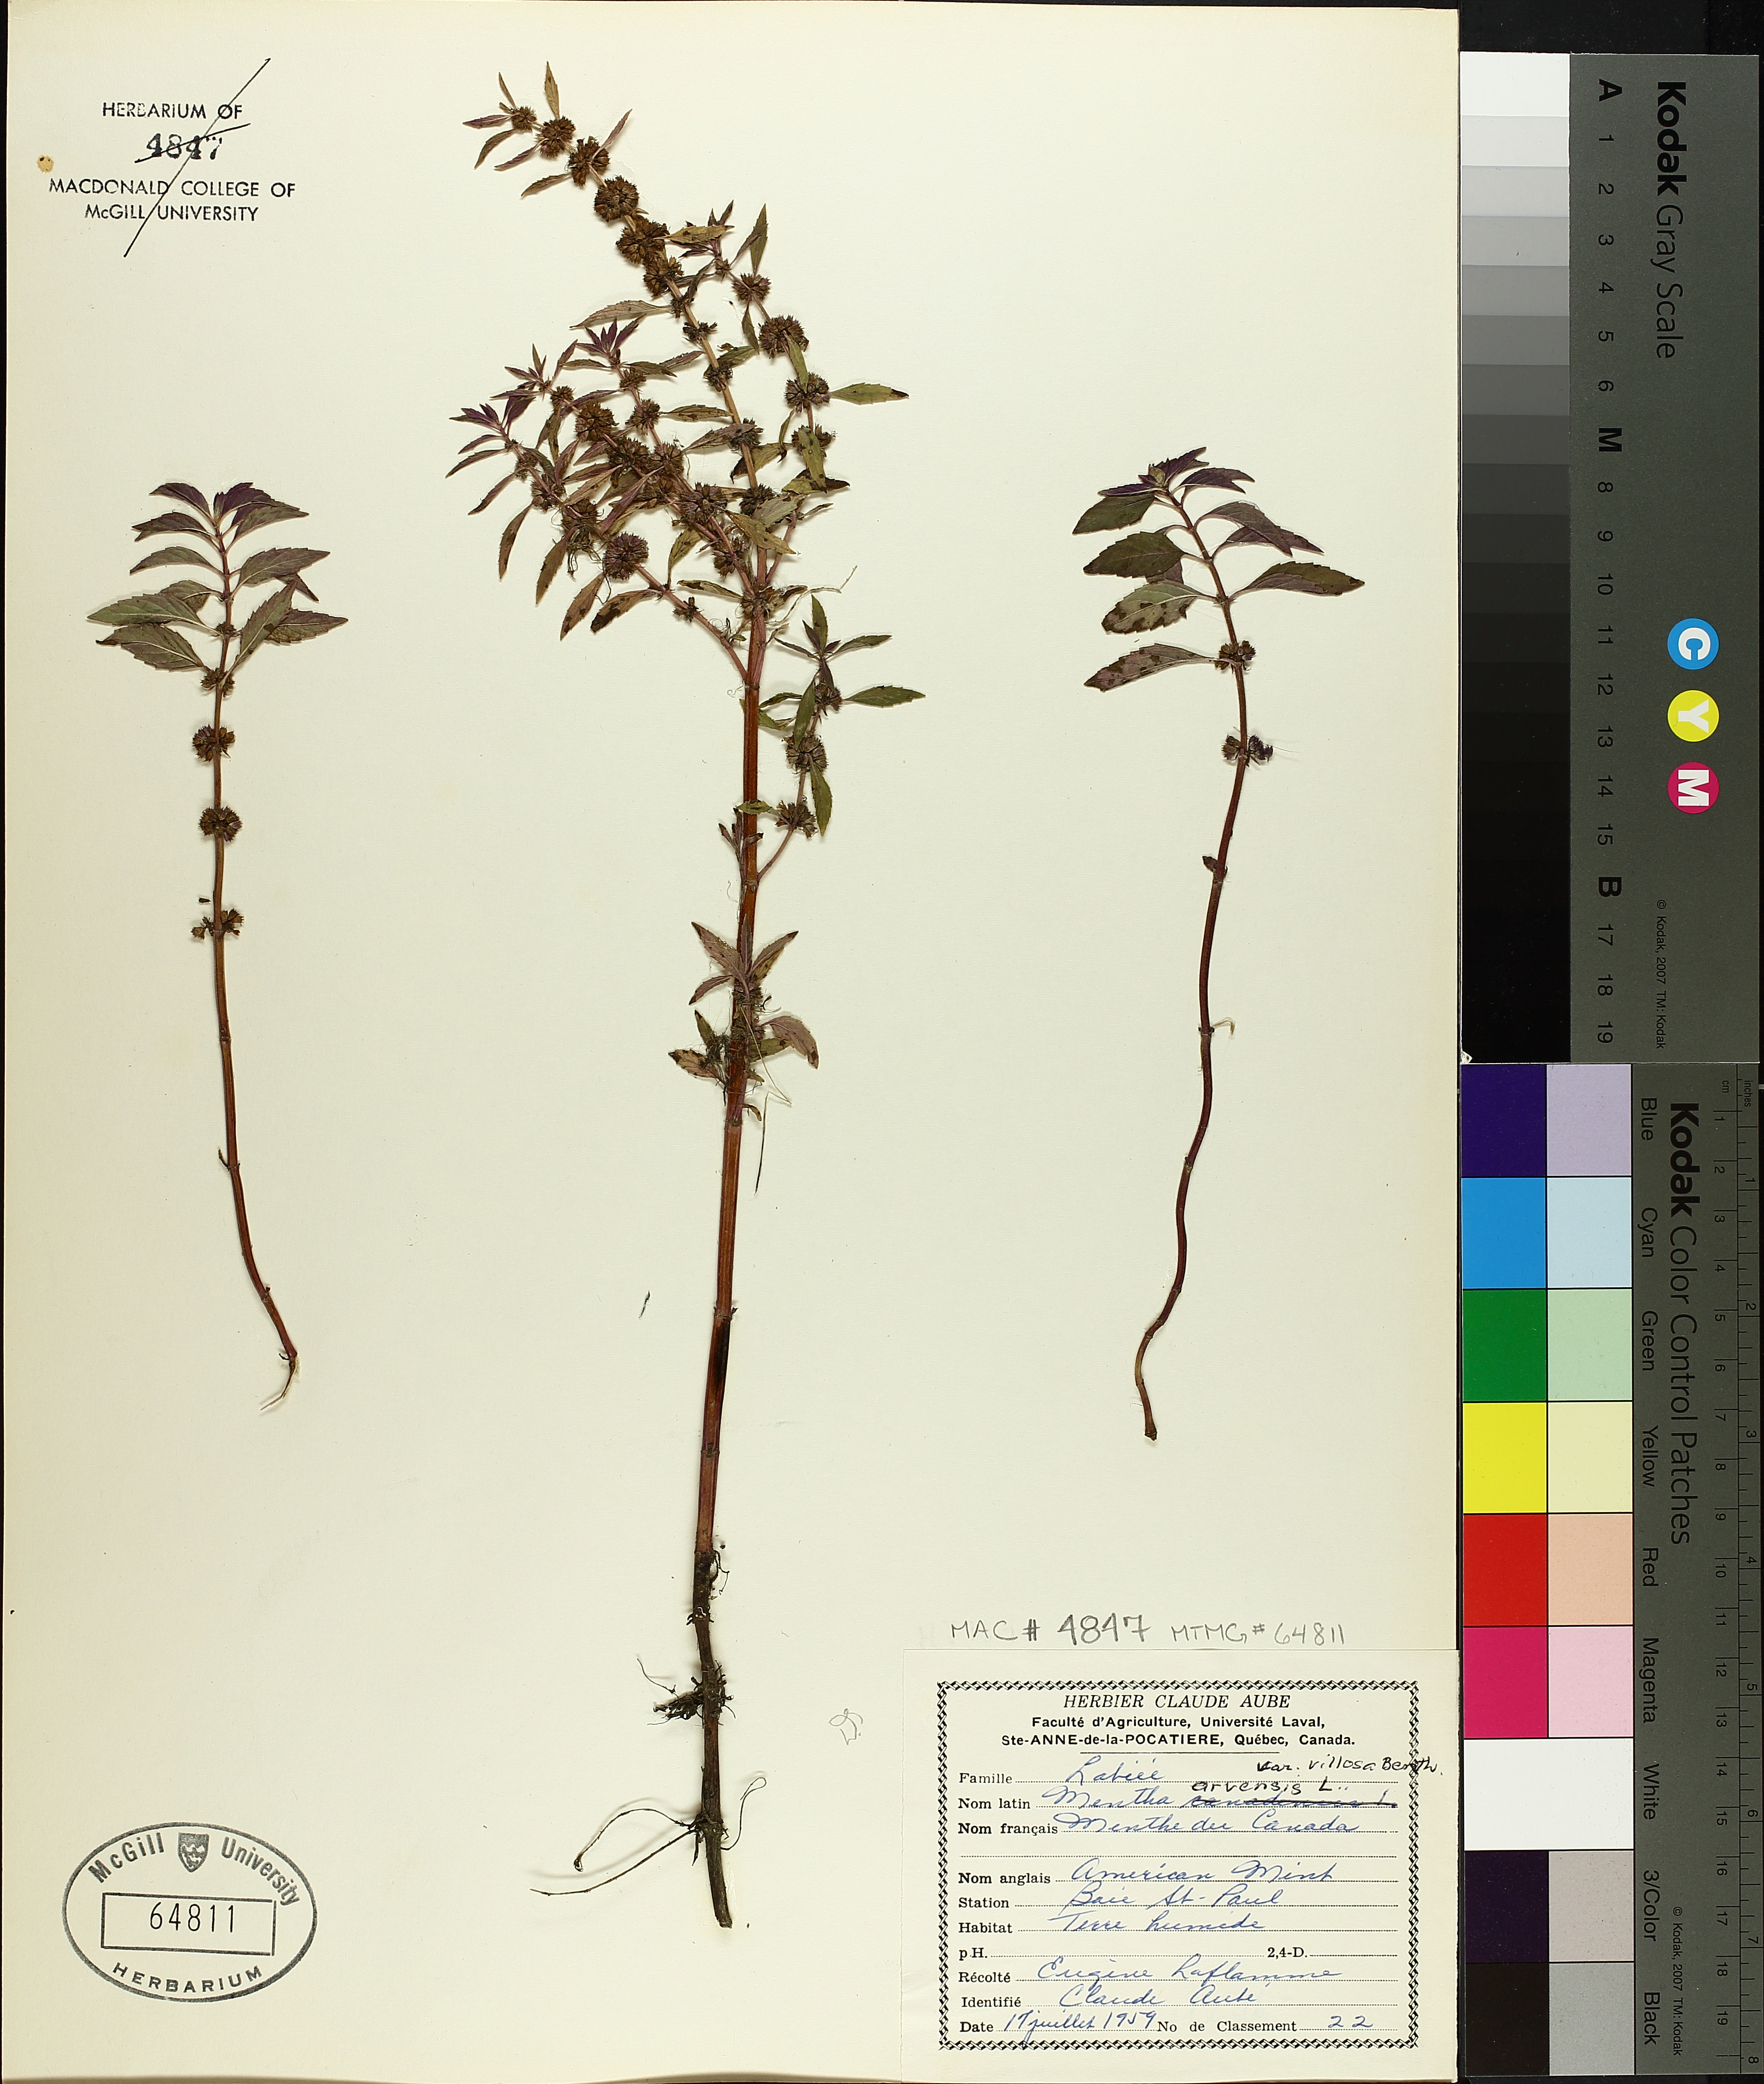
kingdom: Plantae
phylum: Tracheophyta
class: Magnoliopsida
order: Lamiales
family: Lamiaceae
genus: Mentha
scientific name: Mentha arvensis
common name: Corn mint
